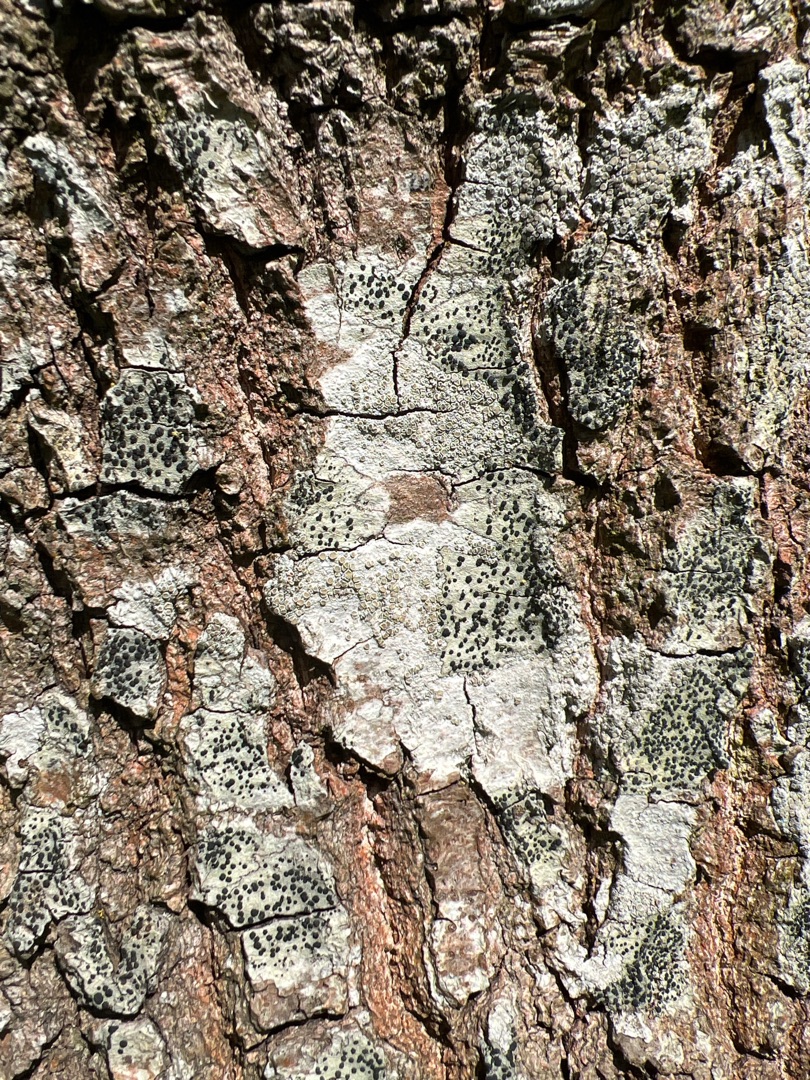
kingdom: Fungi
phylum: Ascomycota
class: Lecanoromycetes
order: Lecanorales
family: Lecanoraceae
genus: Lecidella
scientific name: Lecidella elaeochroma
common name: Grågrøn skivelav
